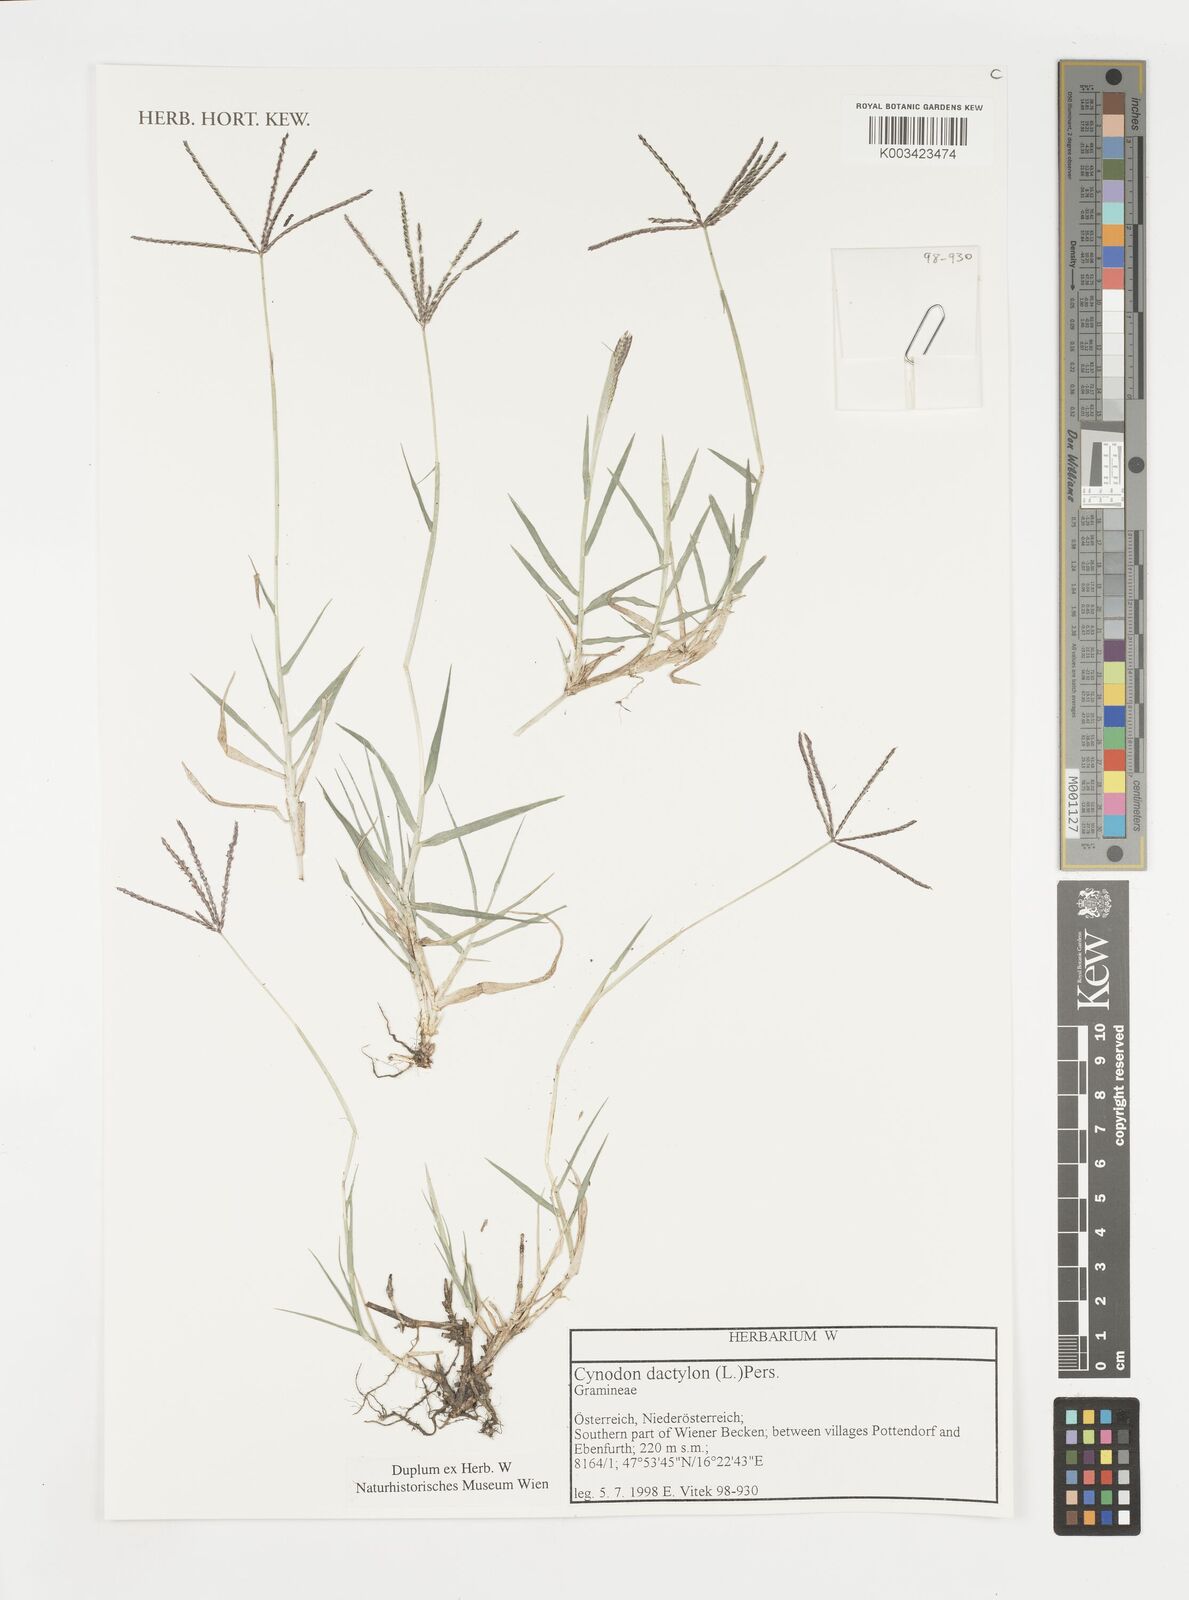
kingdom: Plantae
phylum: Tracheophyta
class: Liliopsida
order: Poales
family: Poaceae
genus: Cynodon
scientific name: Cynodon dactylon
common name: Bermuda grass
